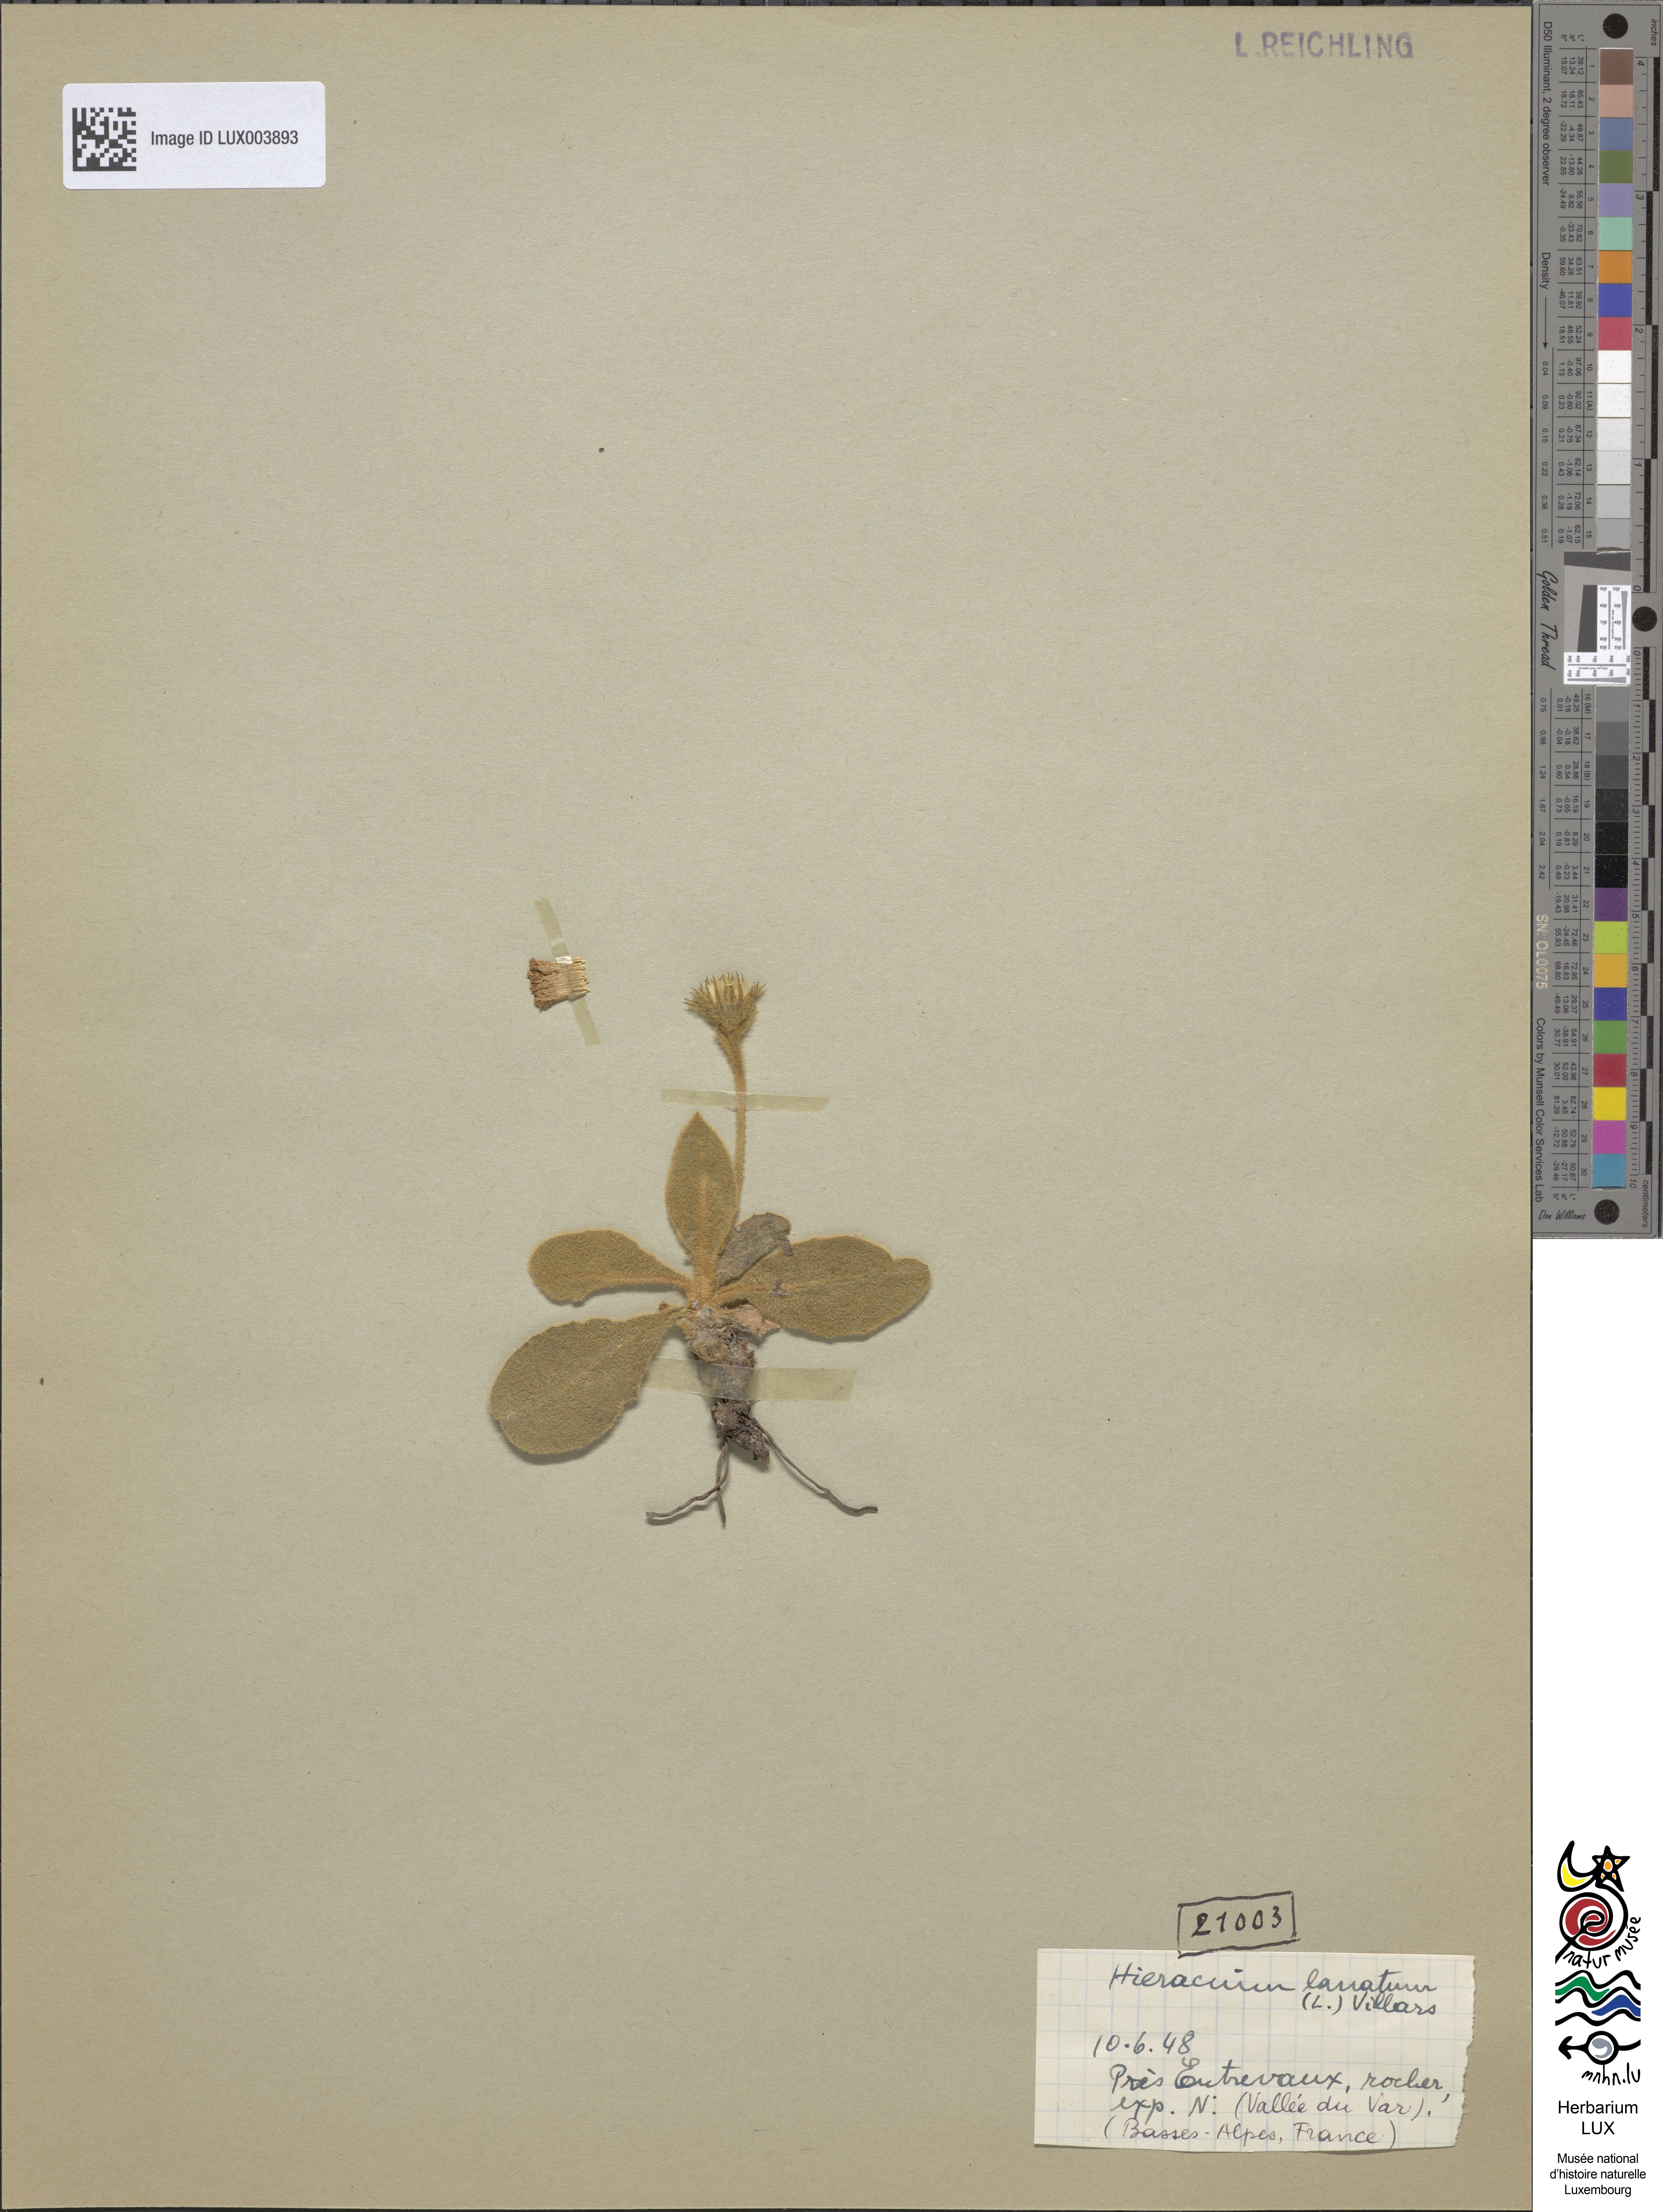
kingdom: Plantae
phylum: Tracheophyta
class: Magnoliopsida
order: Asterales
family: Asteraceae
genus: Hieracium
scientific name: Hieracium tomentosum
